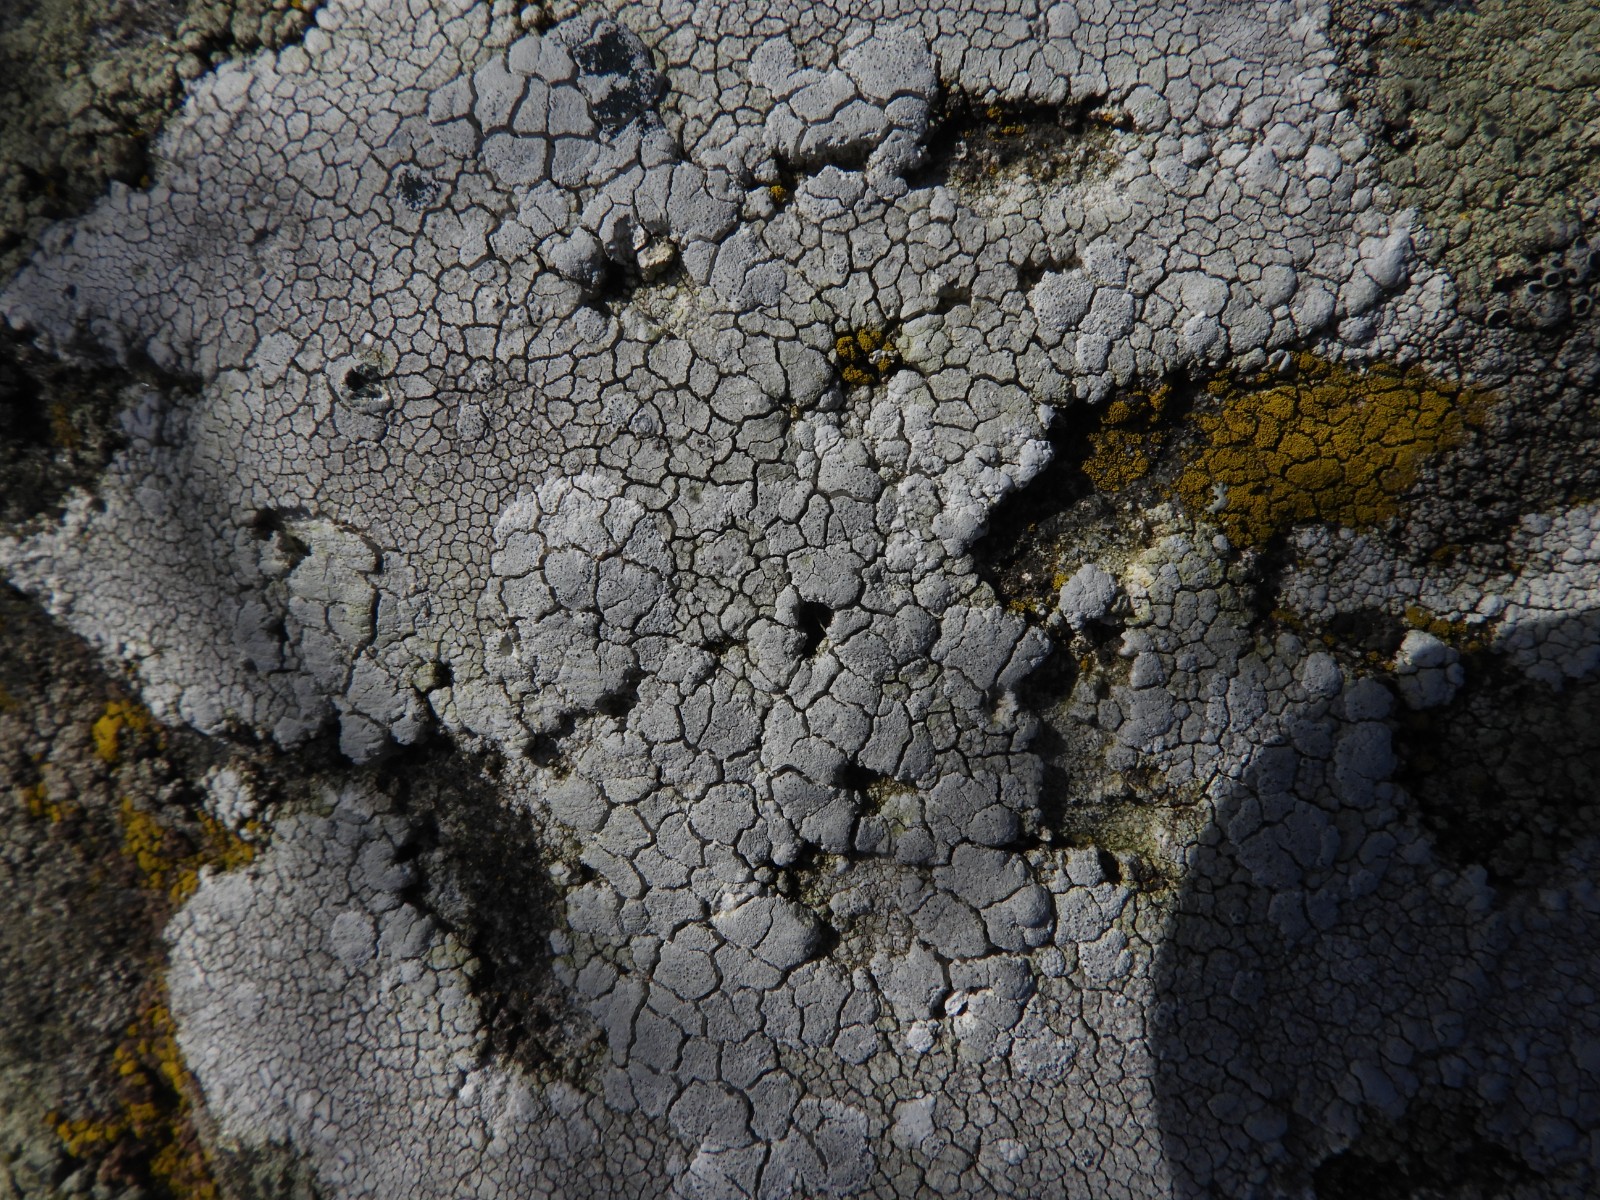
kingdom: Fungi
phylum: Ascomycota
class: Lecanoromycetes
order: Lecanorales
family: Lecanoraceae
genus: Glaucomaria
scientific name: Glaucomaria rupicola
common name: stengærde-kantskivelav
